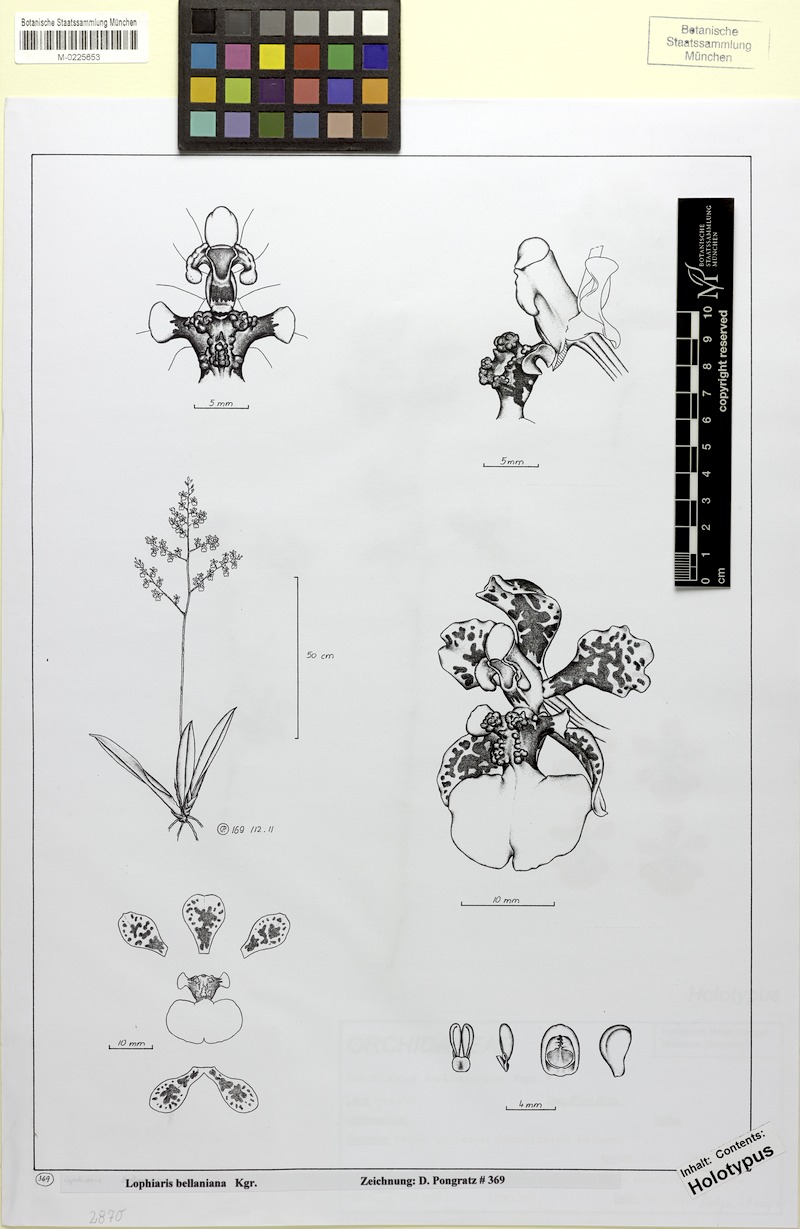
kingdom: Plantae
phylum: Tracheophyta
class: Liliopsida
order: Asparagales
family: Orchidaceae
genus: Trichocentrum
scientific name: Trichocentrum bellanianum
